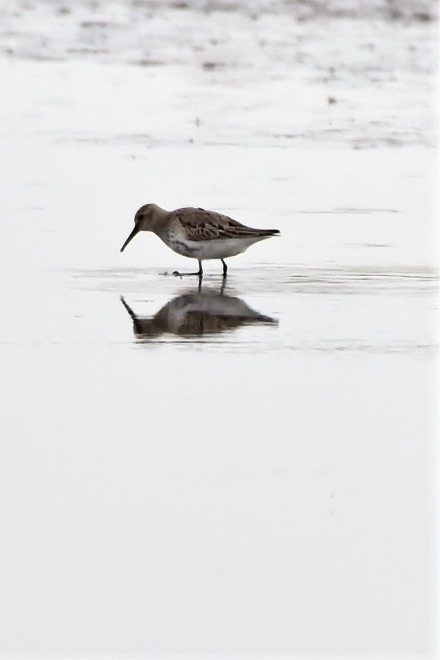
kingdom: Animalia
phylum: Chordata
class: Aves
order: Charadriiformes
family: Scolopacidae
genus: Calidris
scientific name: Calidris alpina
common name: Almindelig ryle
